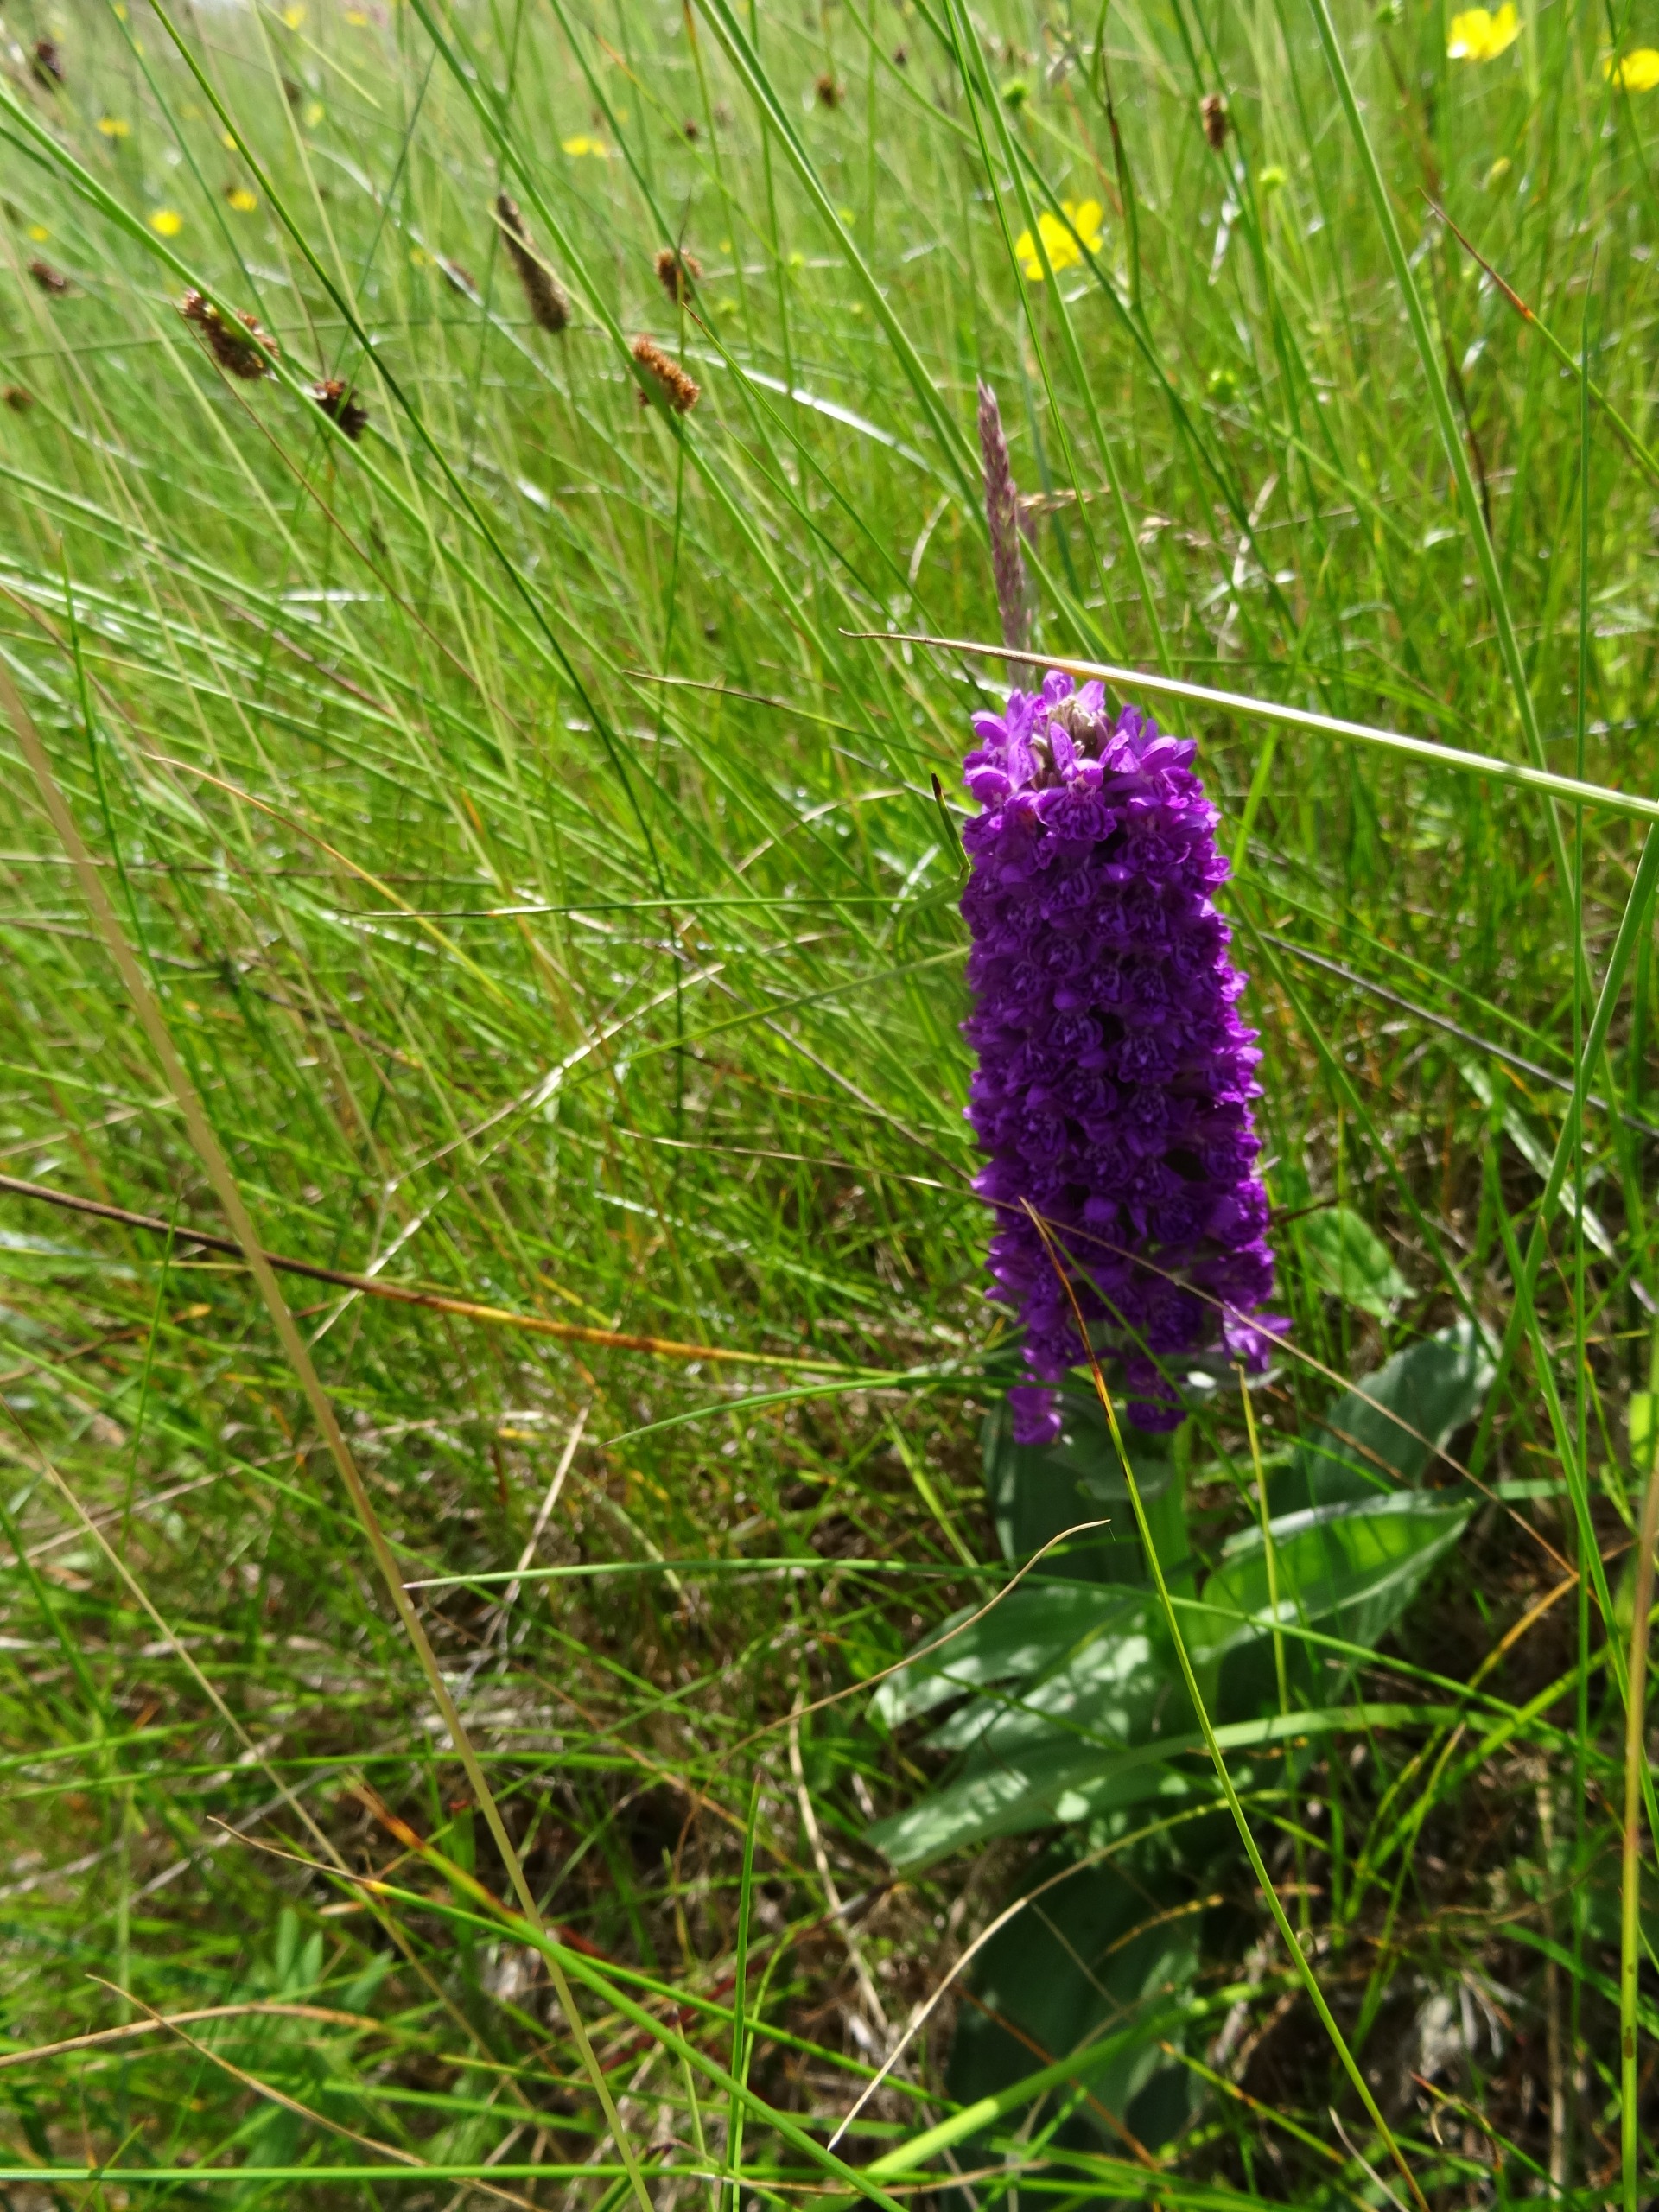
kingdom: Plantae
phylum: Tracheophyta
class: Liliopsida
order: Asparagales
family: Orchidaceae
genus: Dactylorhiza
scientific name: Dactylorhiza majalis
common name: Purpur-gøgeurt
